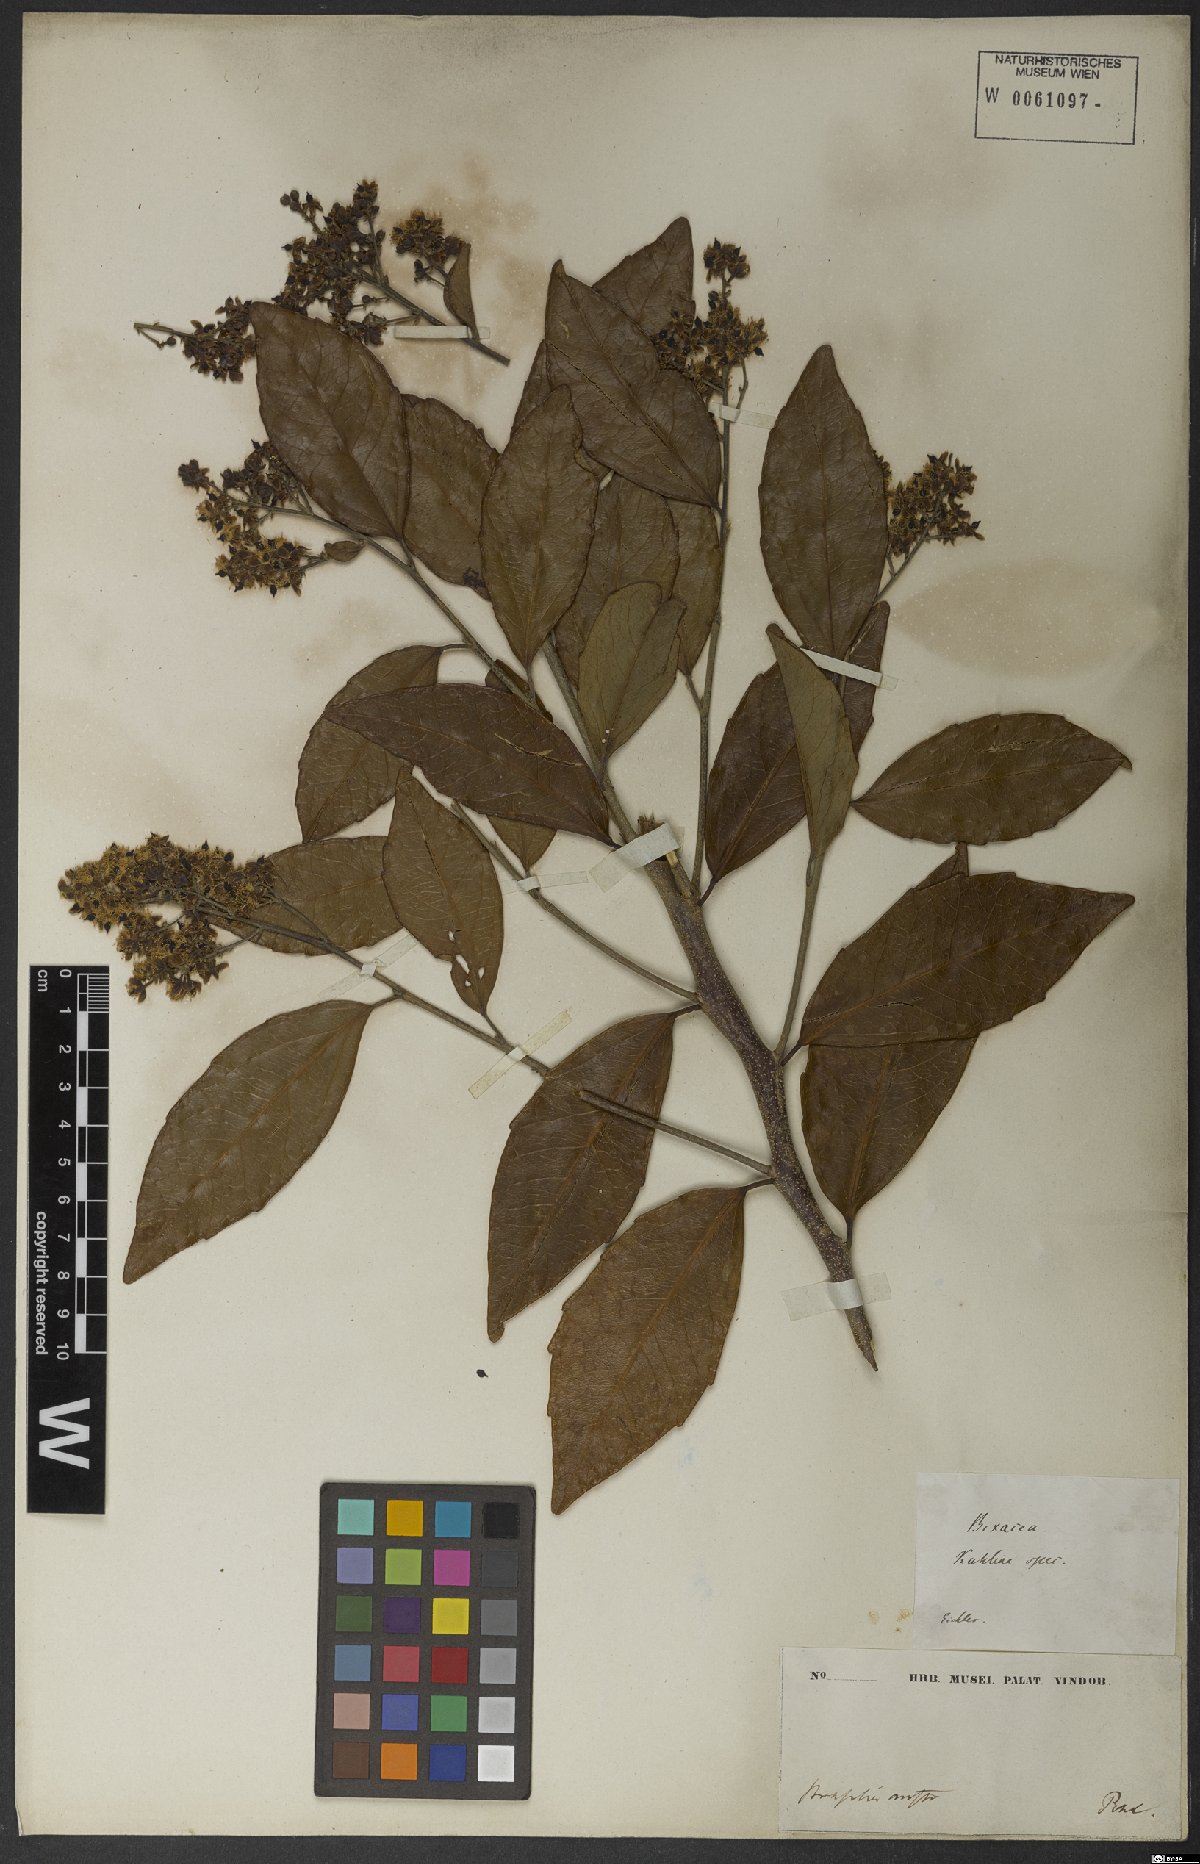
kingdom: Plantae
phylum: Tracheophyta
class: Magnoliopsida
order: Malpighiales
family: Salicaceae
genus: Banara
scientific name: Banara brasiliensis
